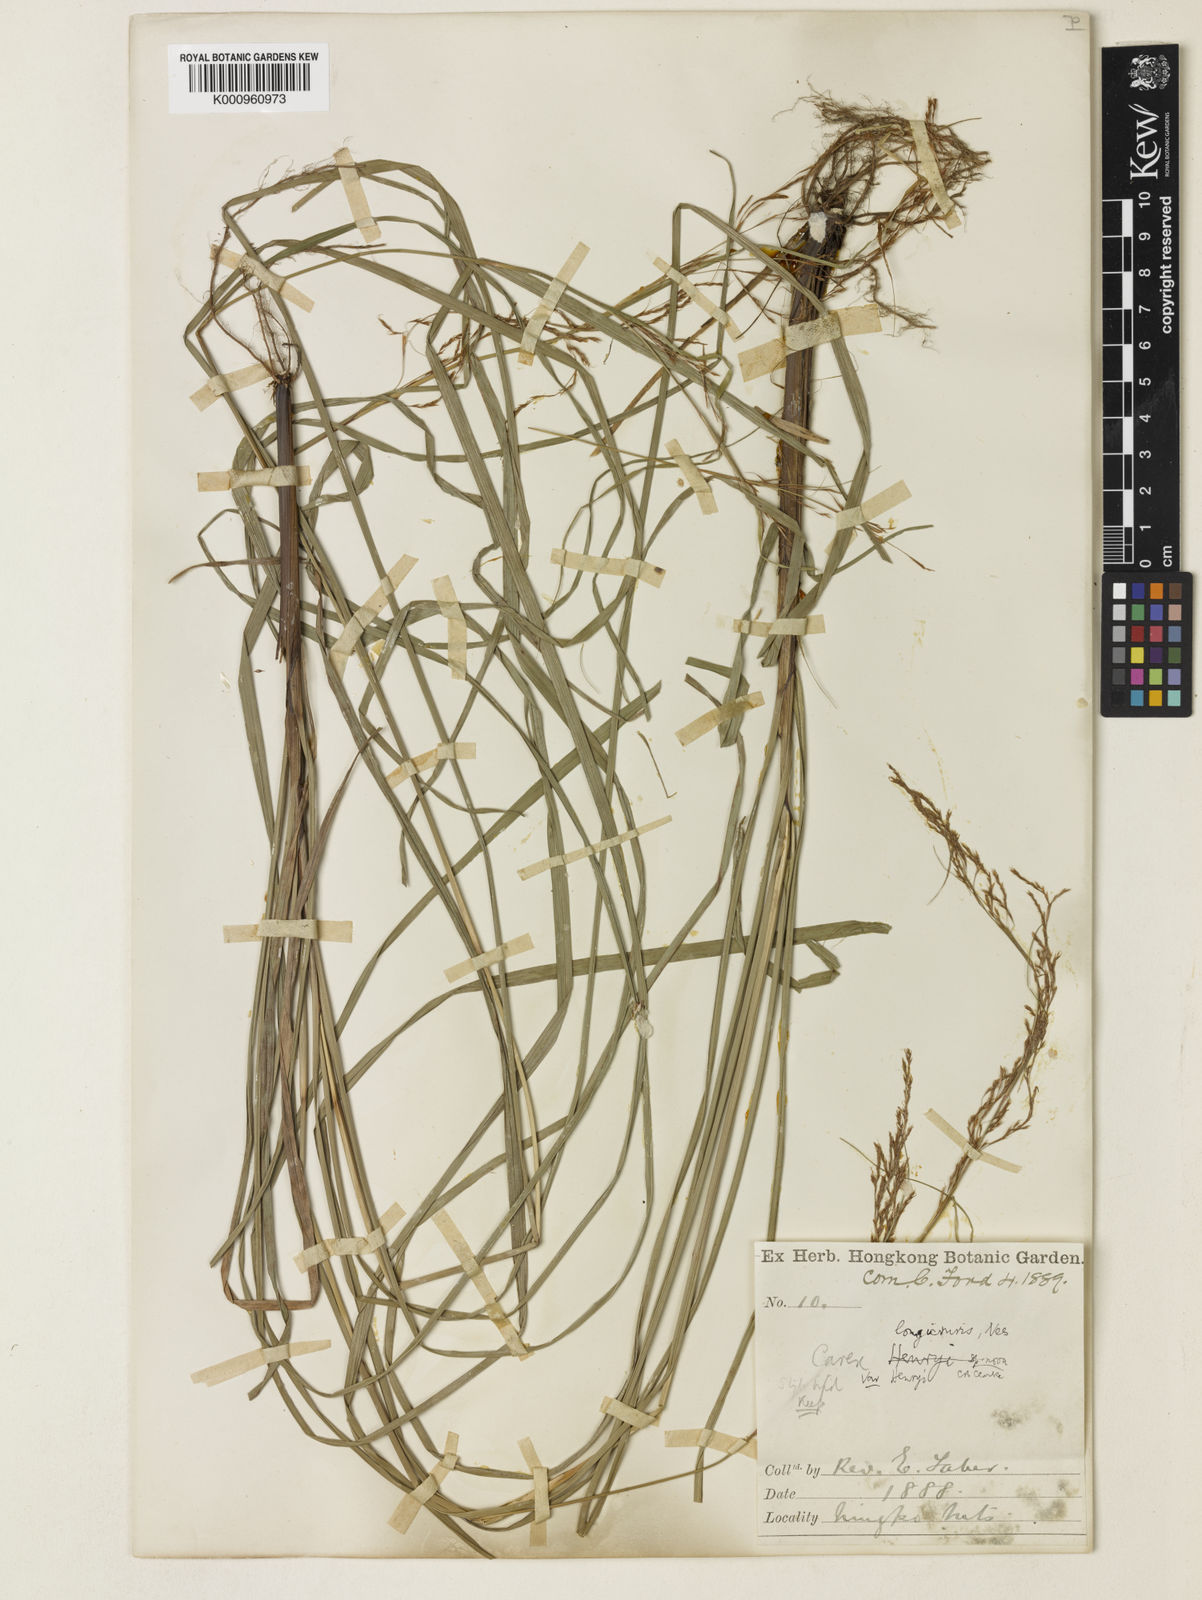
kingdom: Plantae
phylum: Tracheophyta
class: Liliopsida
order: Poales
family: Cyperaceae
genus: Carex
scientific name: Carex longicruris
